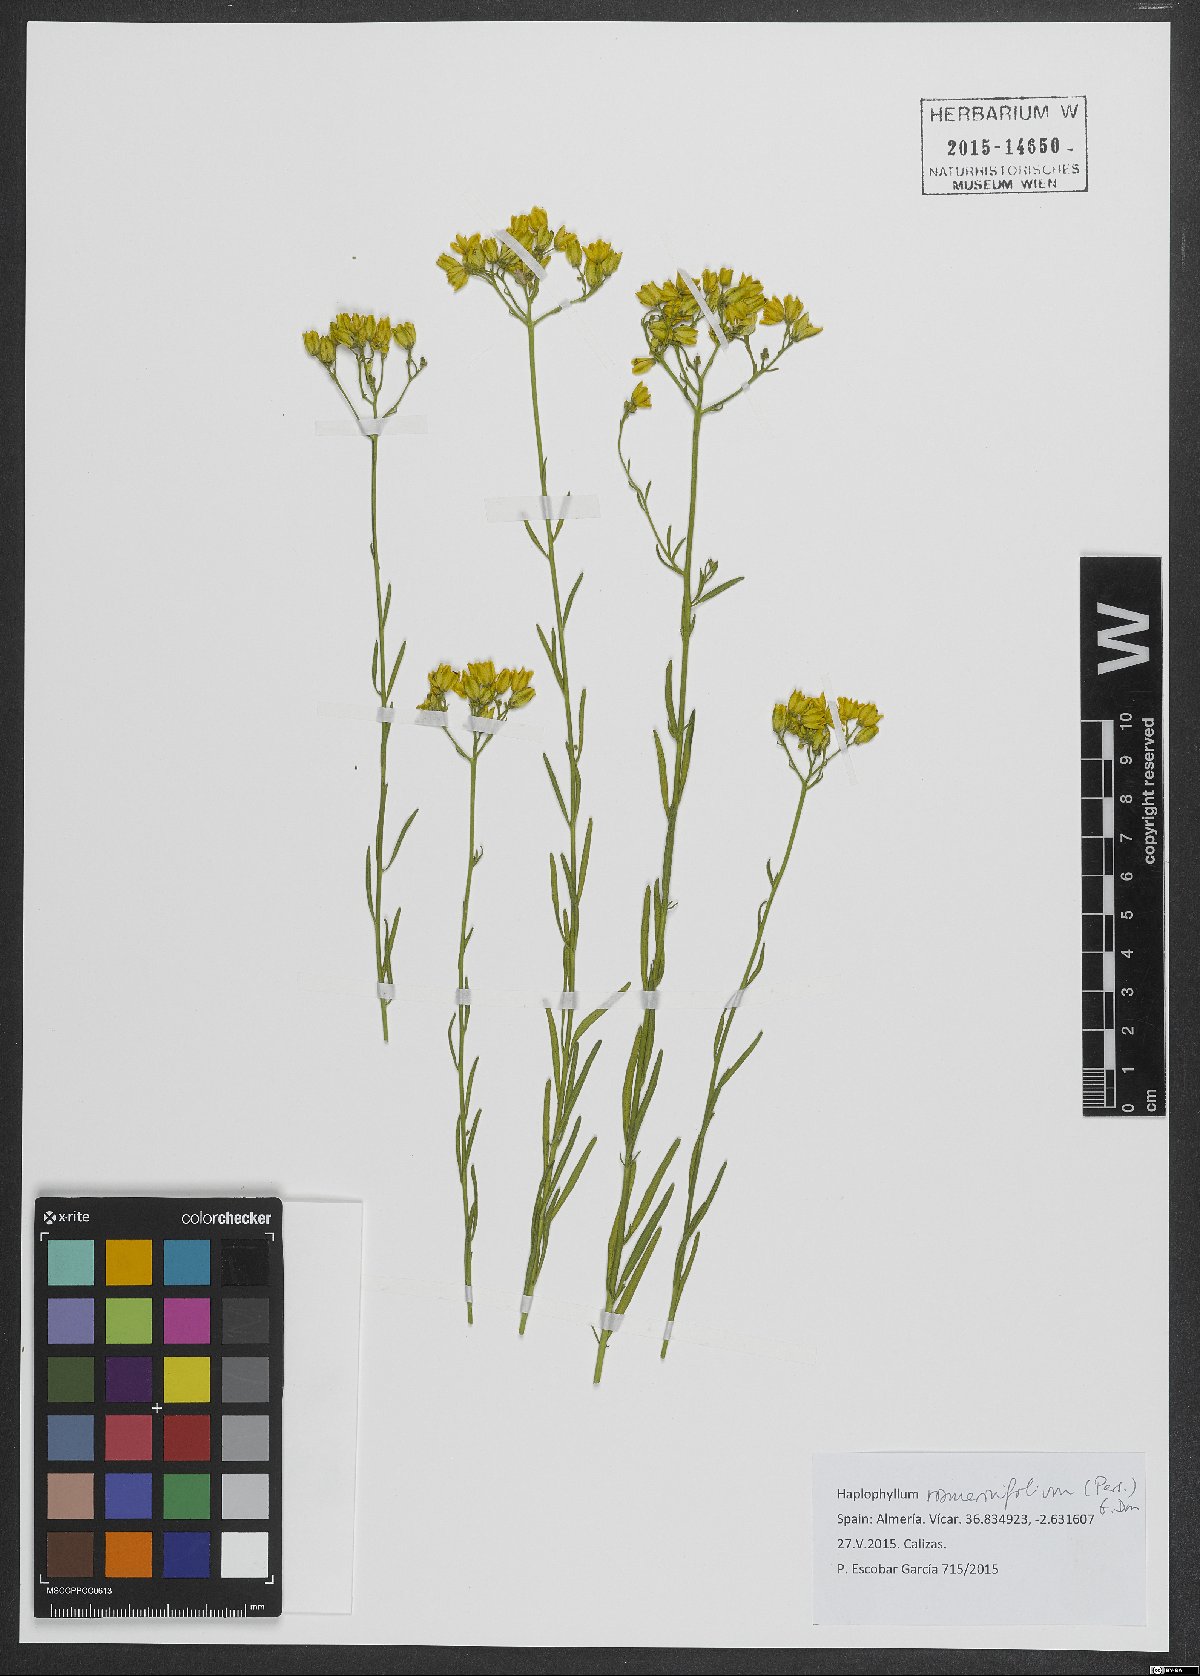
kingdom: Plantae
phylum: Tracheophyta
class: Magnoliopsida
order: Sapindales
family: Rutaceae
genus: Haplophyllum
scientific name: Haplophyllum rosmarinifolium
